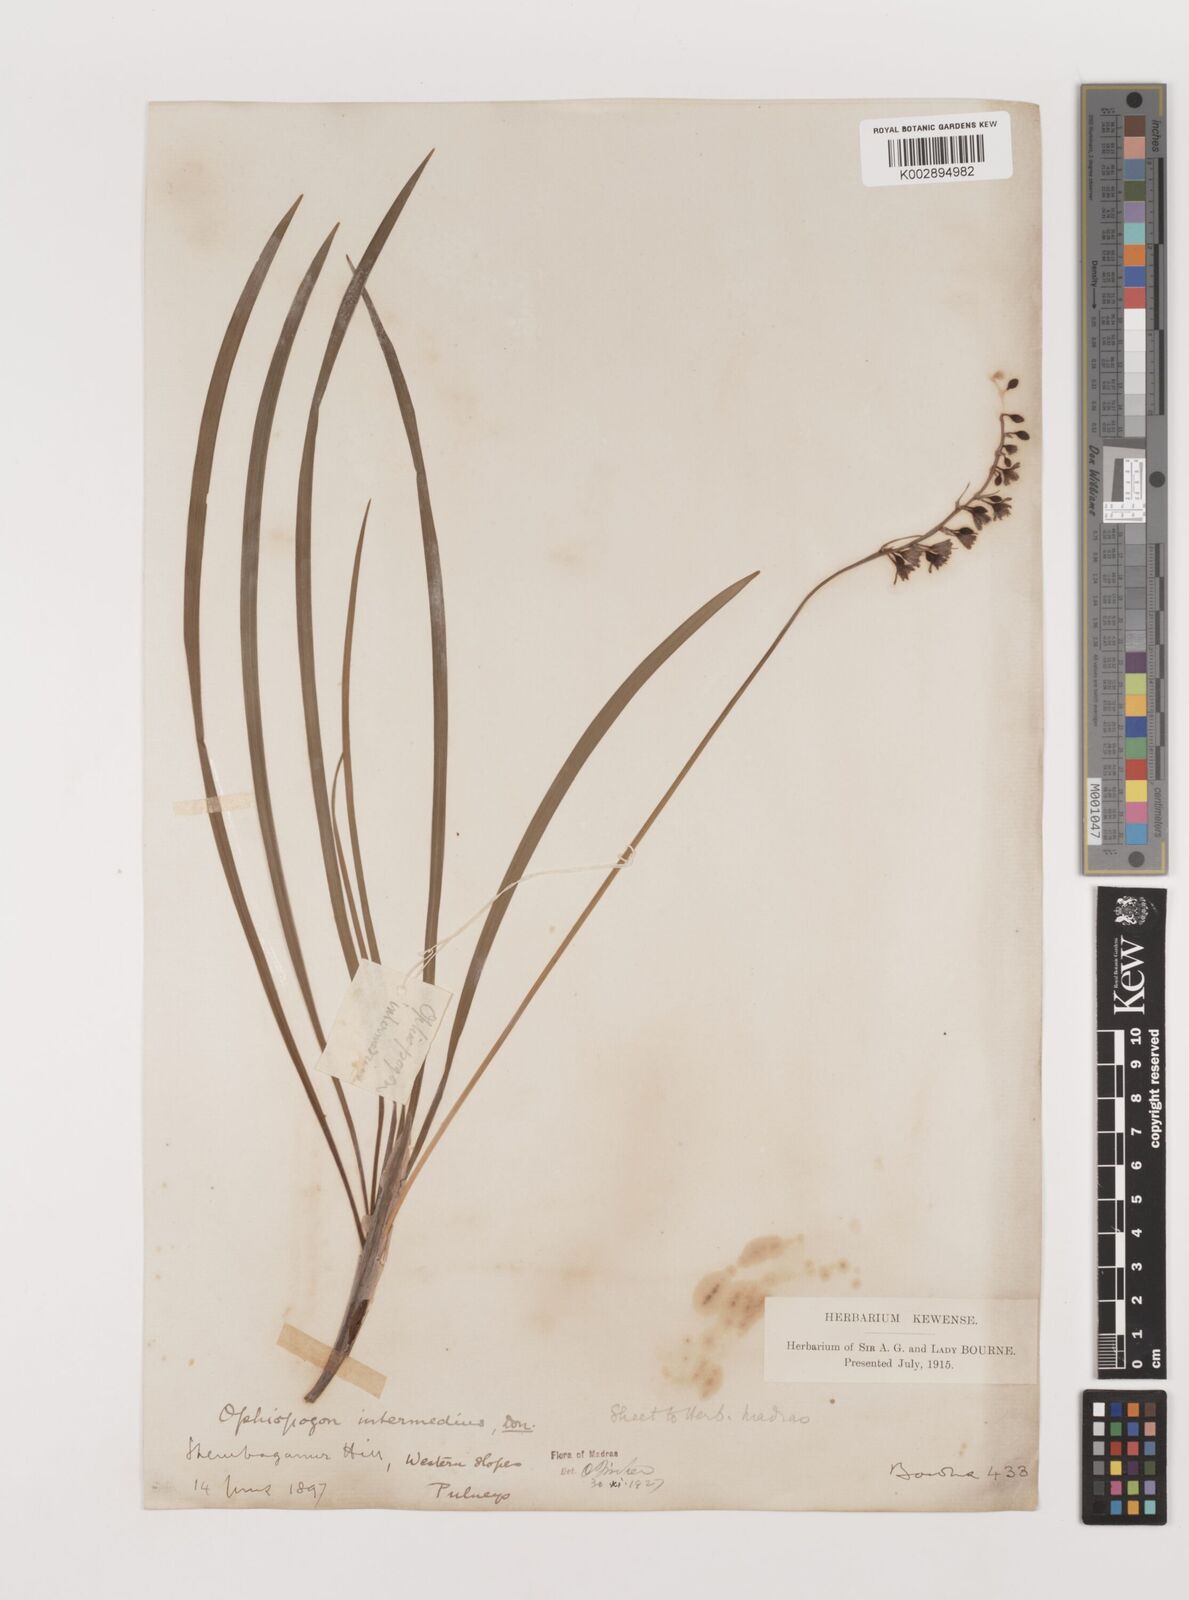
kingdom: Plantae
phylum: Tracheophyta
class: Liliopsida
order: Asparagales
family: Asparagaceae
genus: Ophiopogon
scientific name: Ophiopogon intermedius
